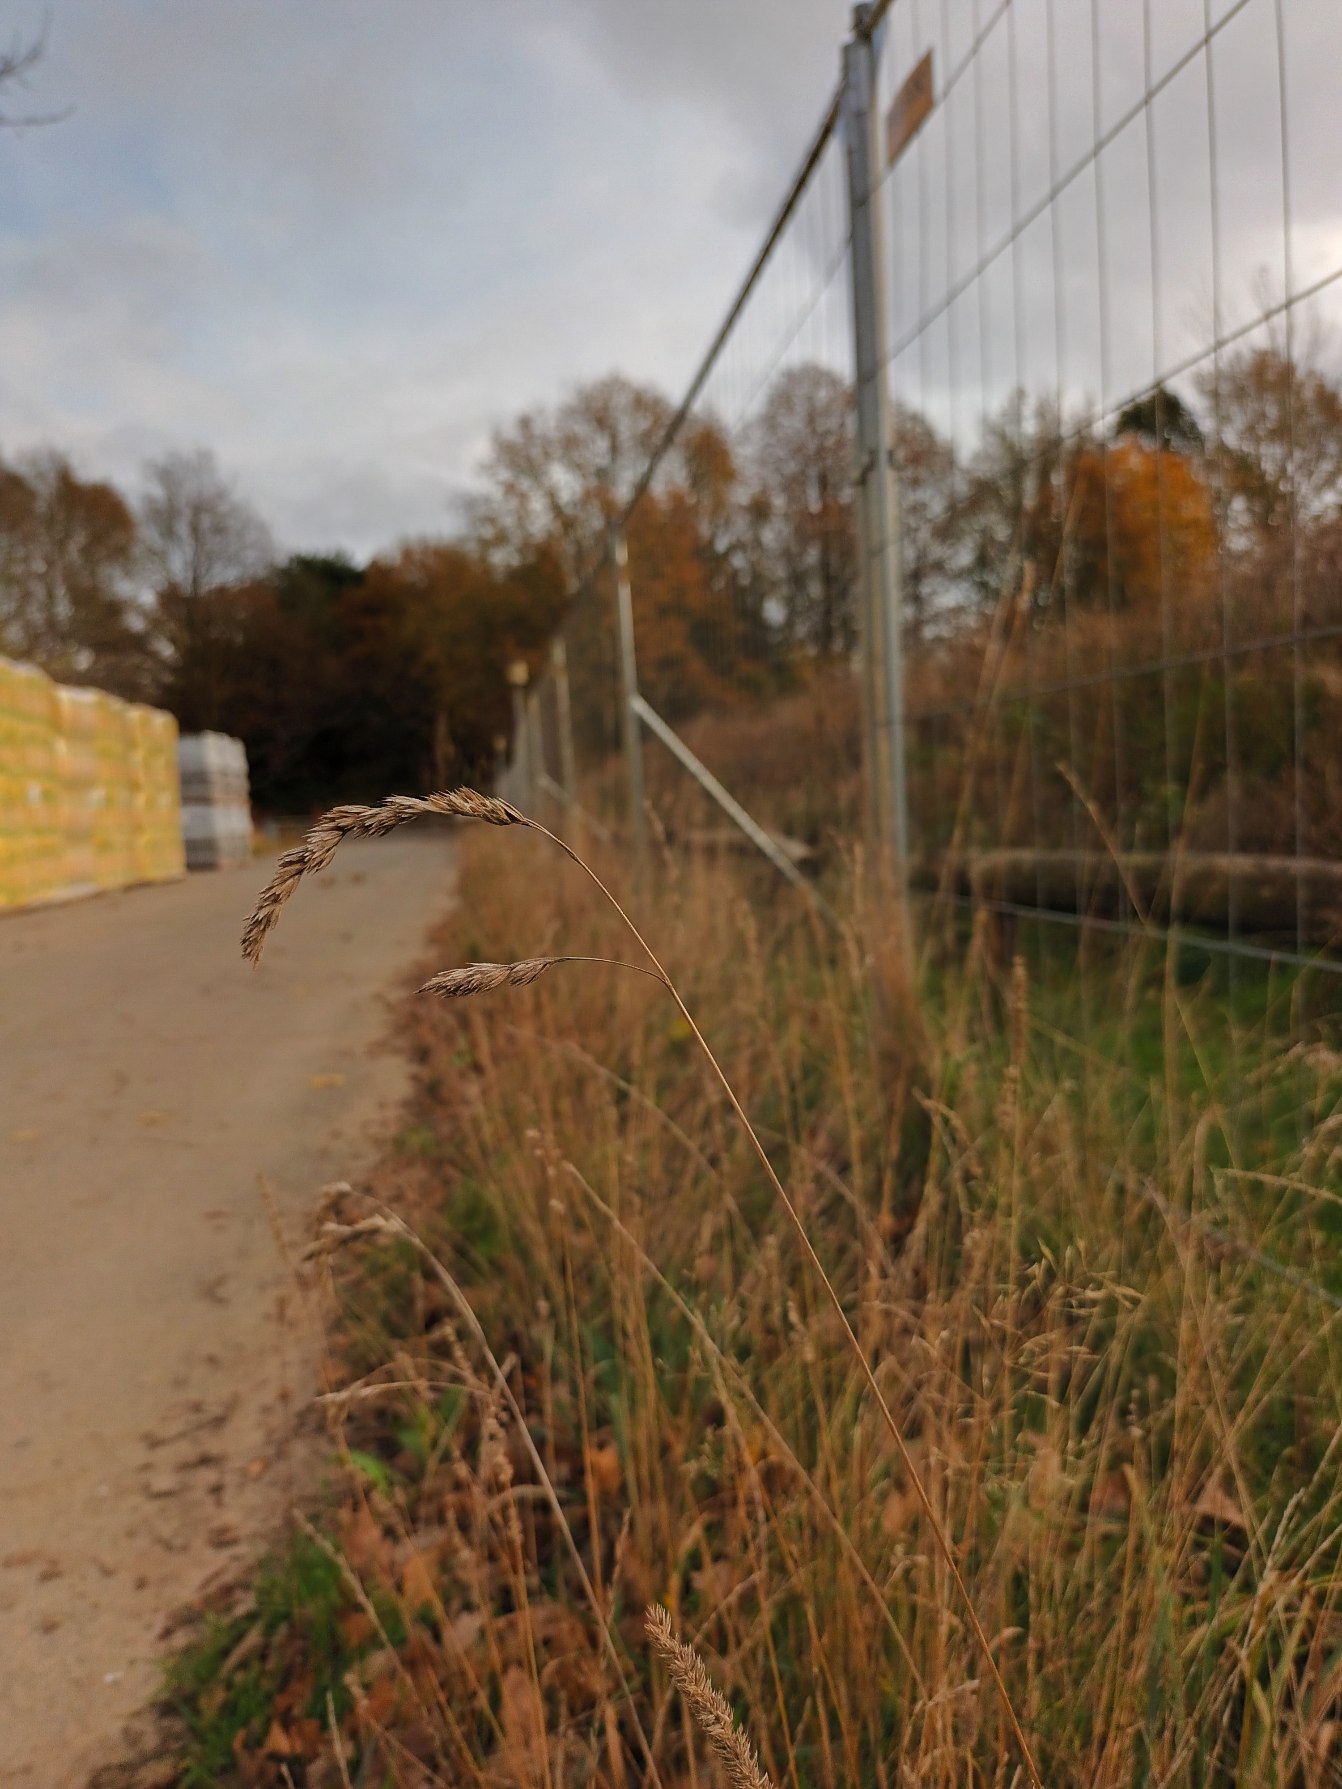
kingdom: Plantae
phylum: Tracheophyta
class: Liliopsida
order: Poales
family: Poaceae
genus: Dactylis
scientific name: Dactylis glomerata
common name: Almindelig hundegræs
